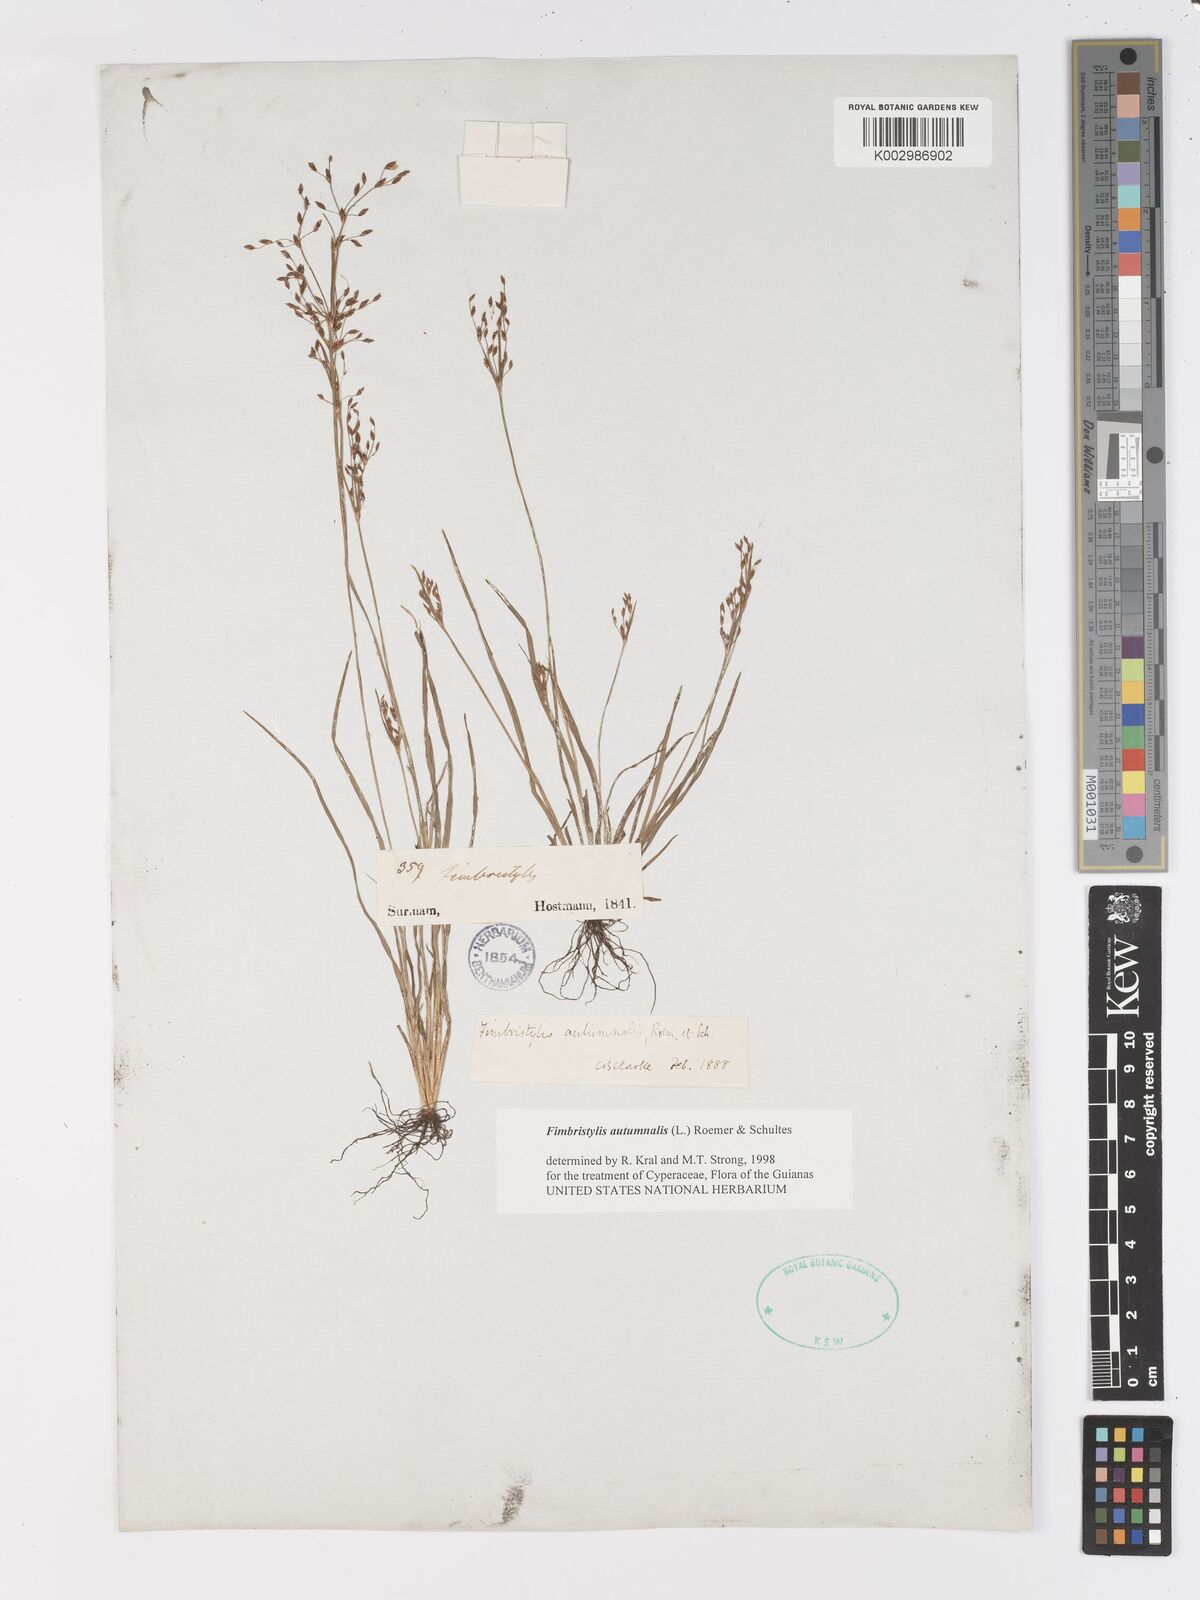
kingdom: Plantae
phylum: Tracheophyta
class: Liliopsida
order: Poales
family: Cyperaceae
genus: Fimbristylis
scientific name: Fimbristylis autumnalis
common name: Slender fimbristylis
